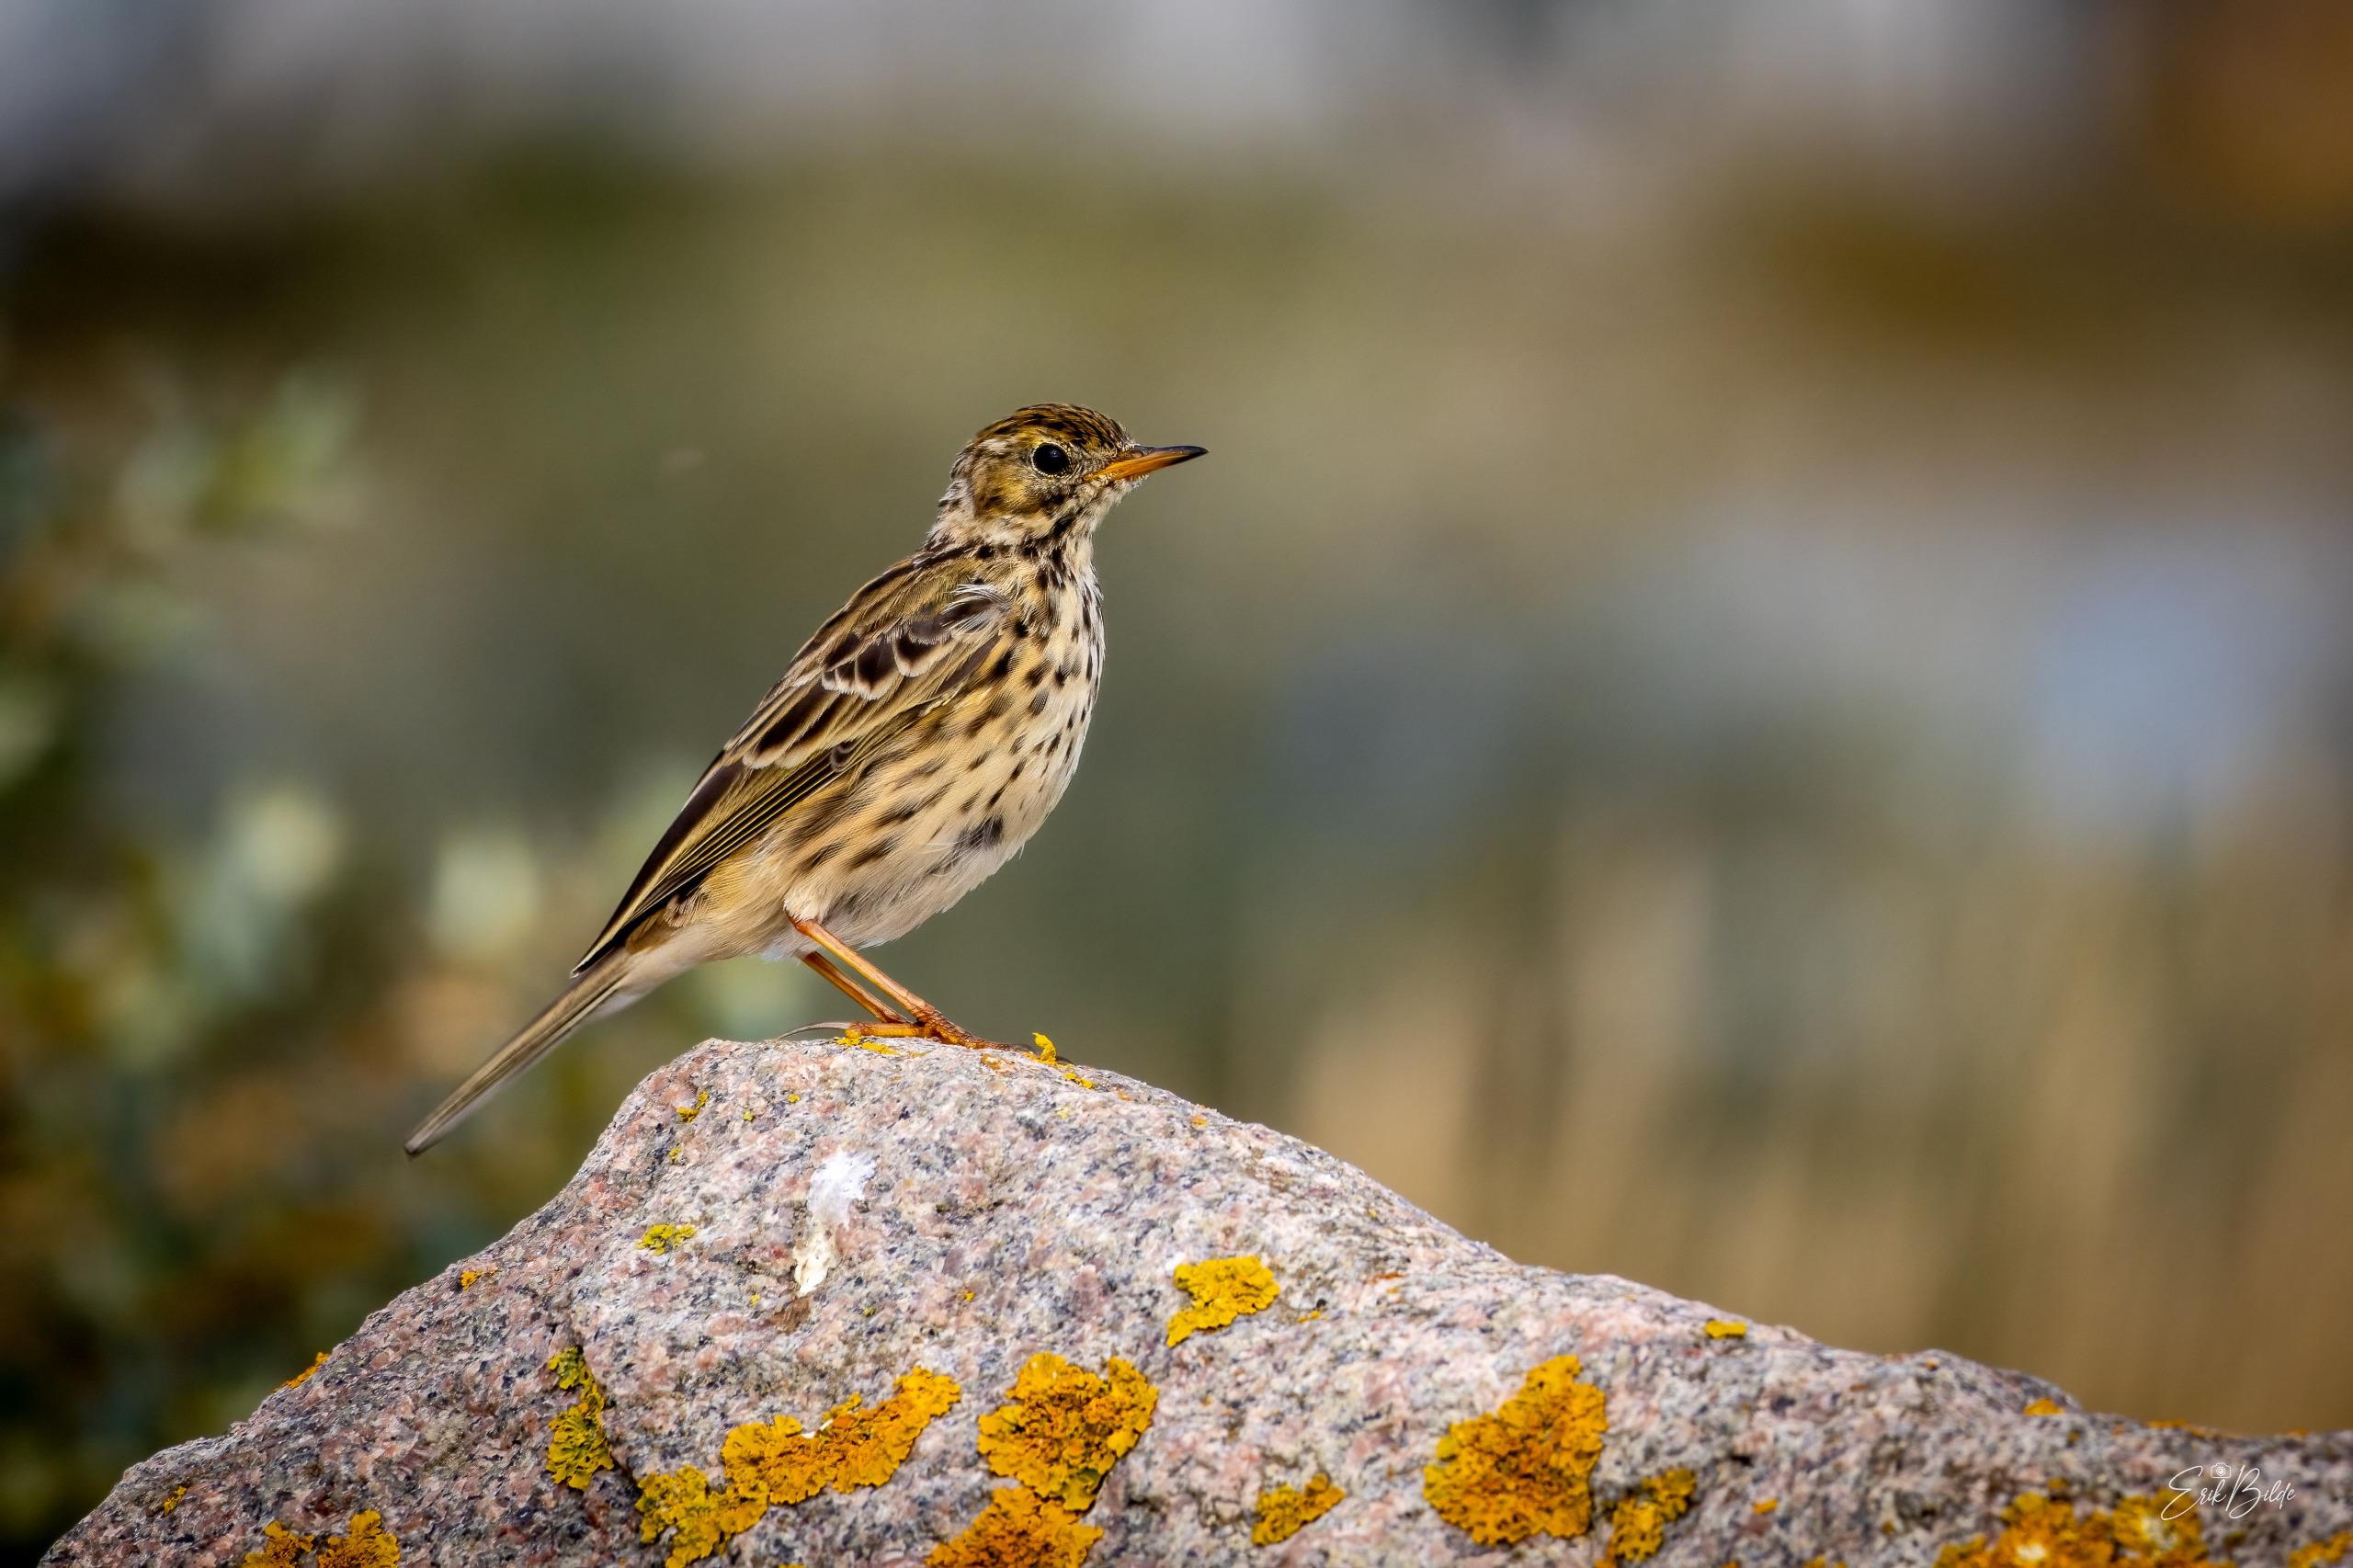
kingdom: Animalia
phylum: Chordata
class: Aves
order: Passeriformes
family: Motacillidae
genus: Anthus
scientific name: Anthus pratensis
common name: Engpiber
